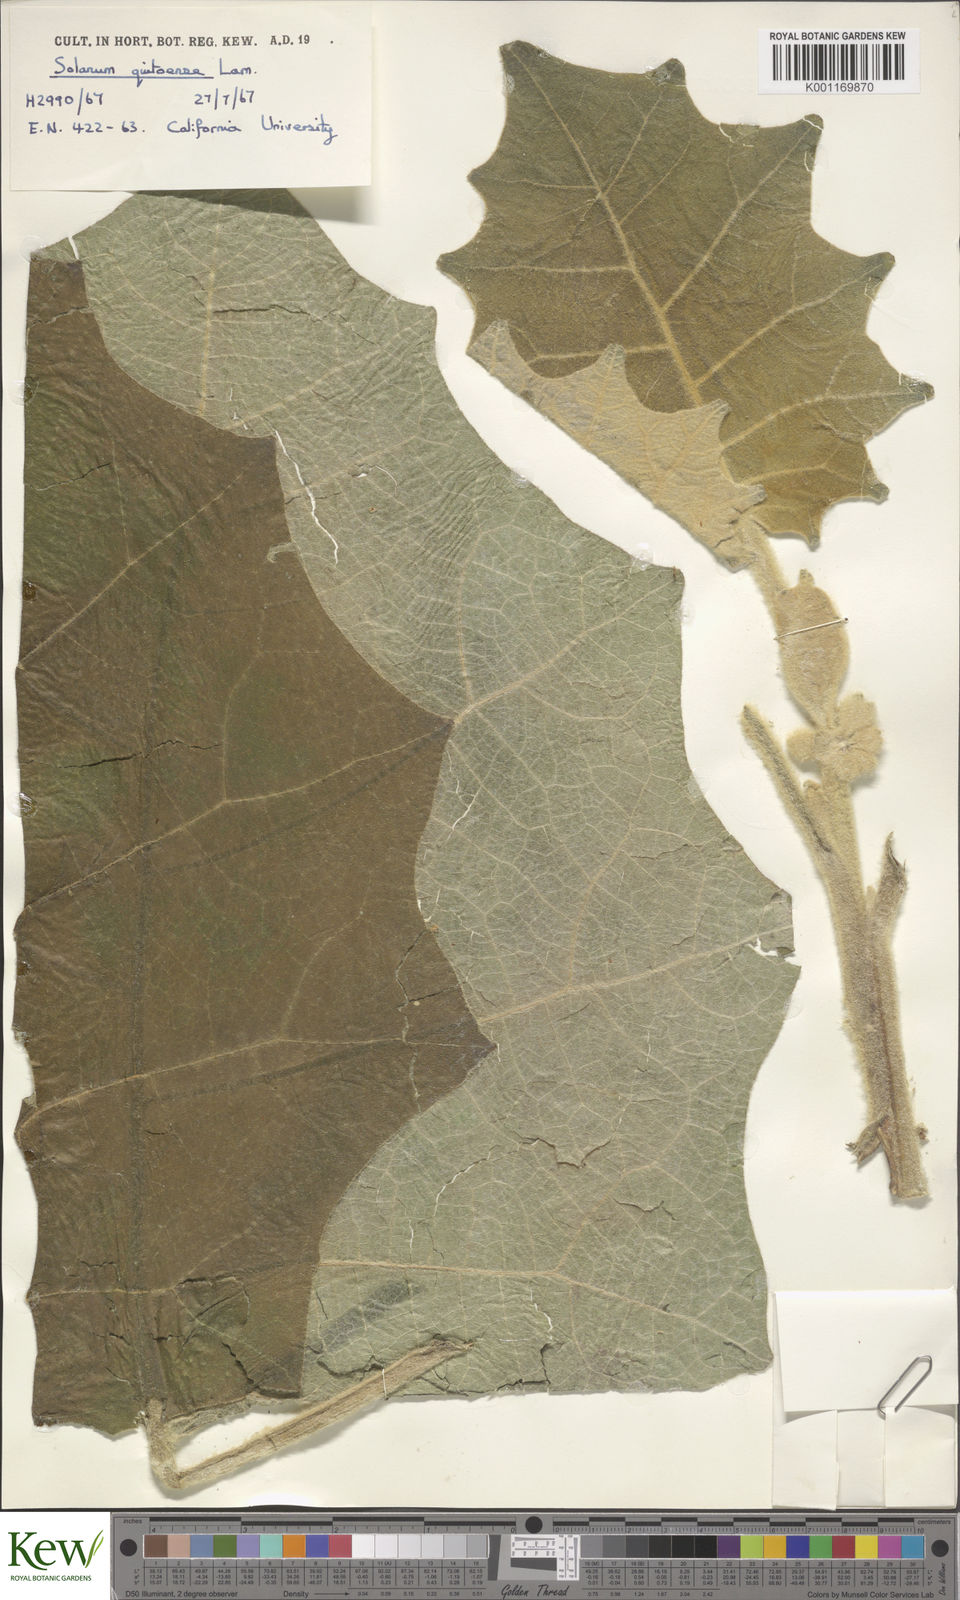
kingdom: Plantae
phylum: Tracheophyta
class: Magnoliopsida
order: Solanales
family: Solanaceae
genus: Solanum
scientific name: Solanum quitoense
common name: Quito-orange
